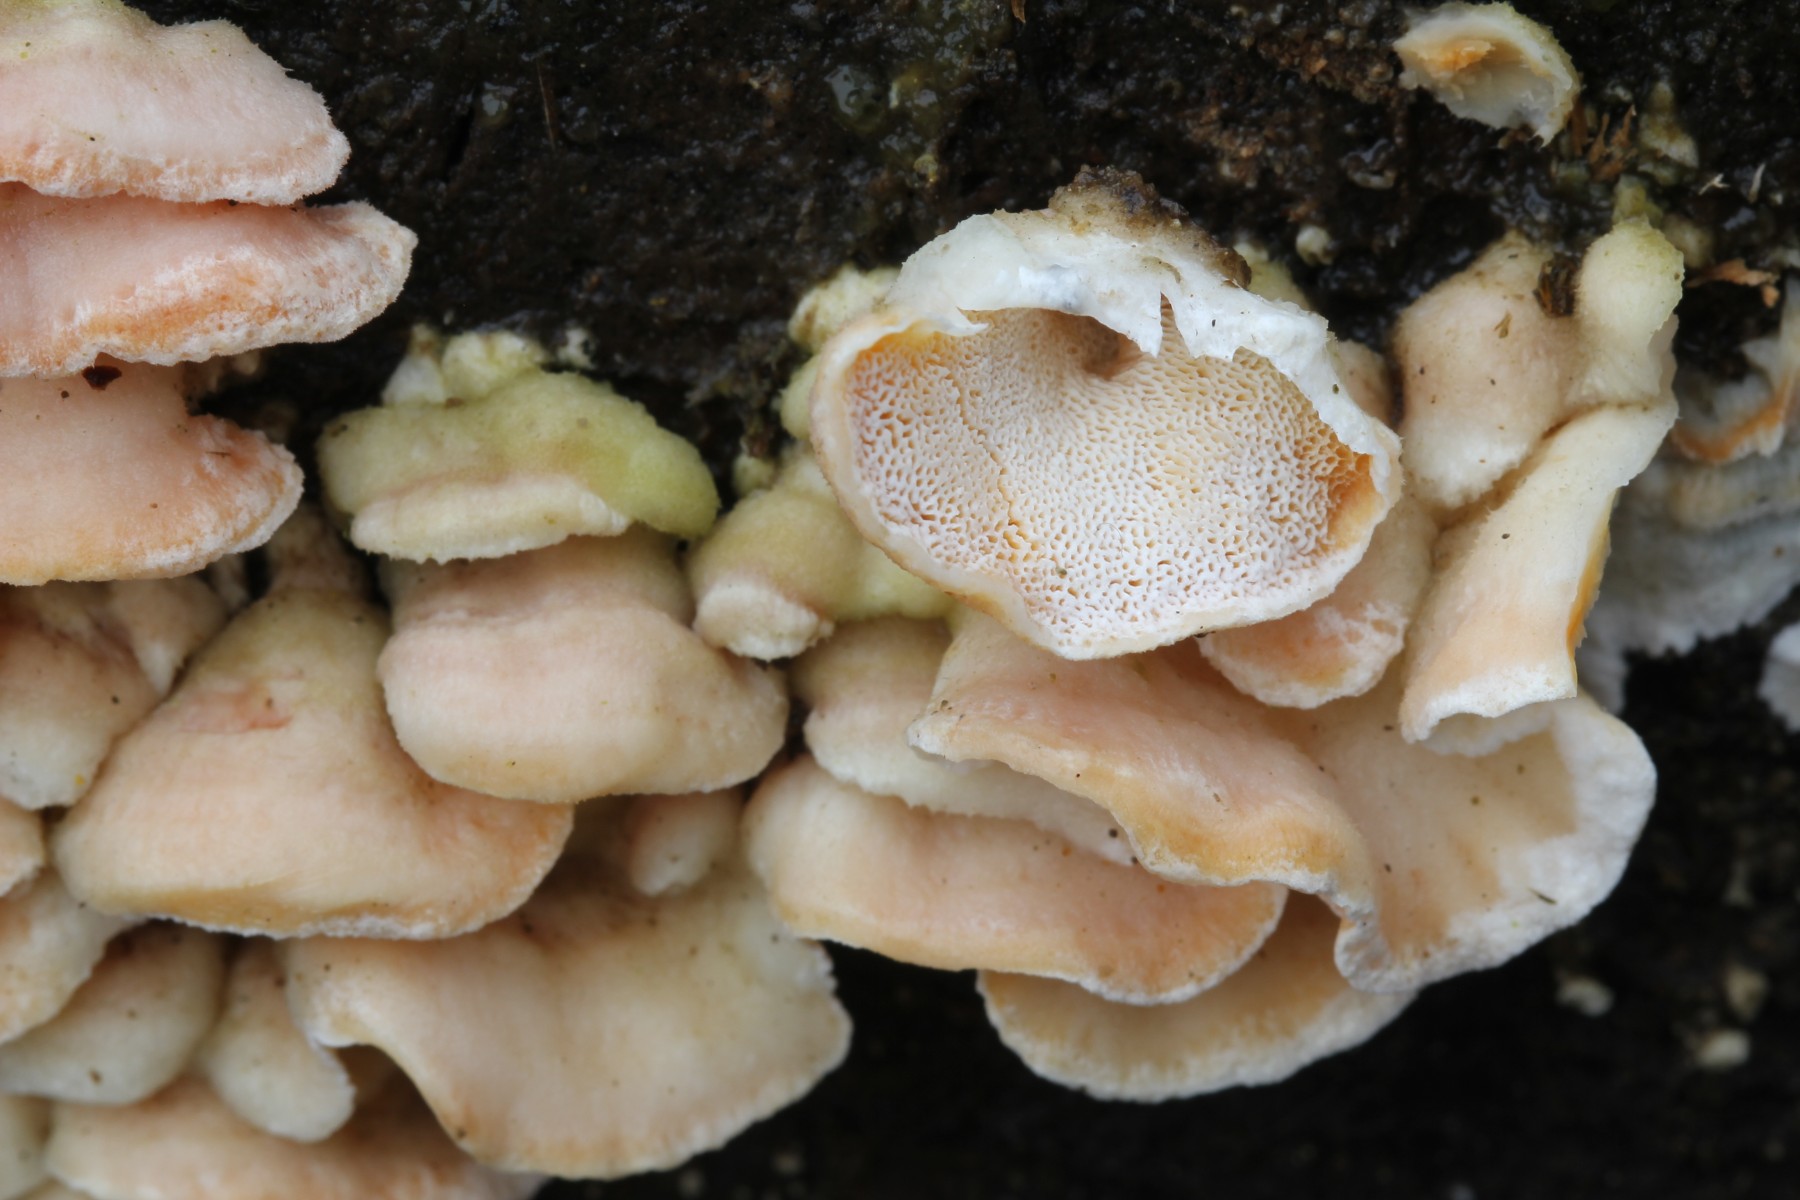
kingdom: Fungi
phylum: Basidiomycota
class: Agaricomycetes
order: Polyporales
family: Incrustoporiaceae
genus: Skeletocutis
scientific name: Skeletocutis amorpha
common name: orange krystalporesvamp
